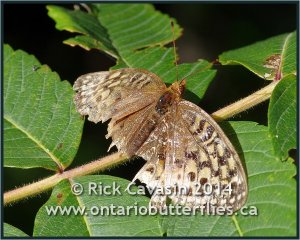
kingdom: Animalia
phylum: Arthropoda
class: Insecta
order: Lepidoptera
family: Nymphalidae
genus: Speyeria
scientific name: Speyeria cybele
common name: Great Spangled Fritillary
